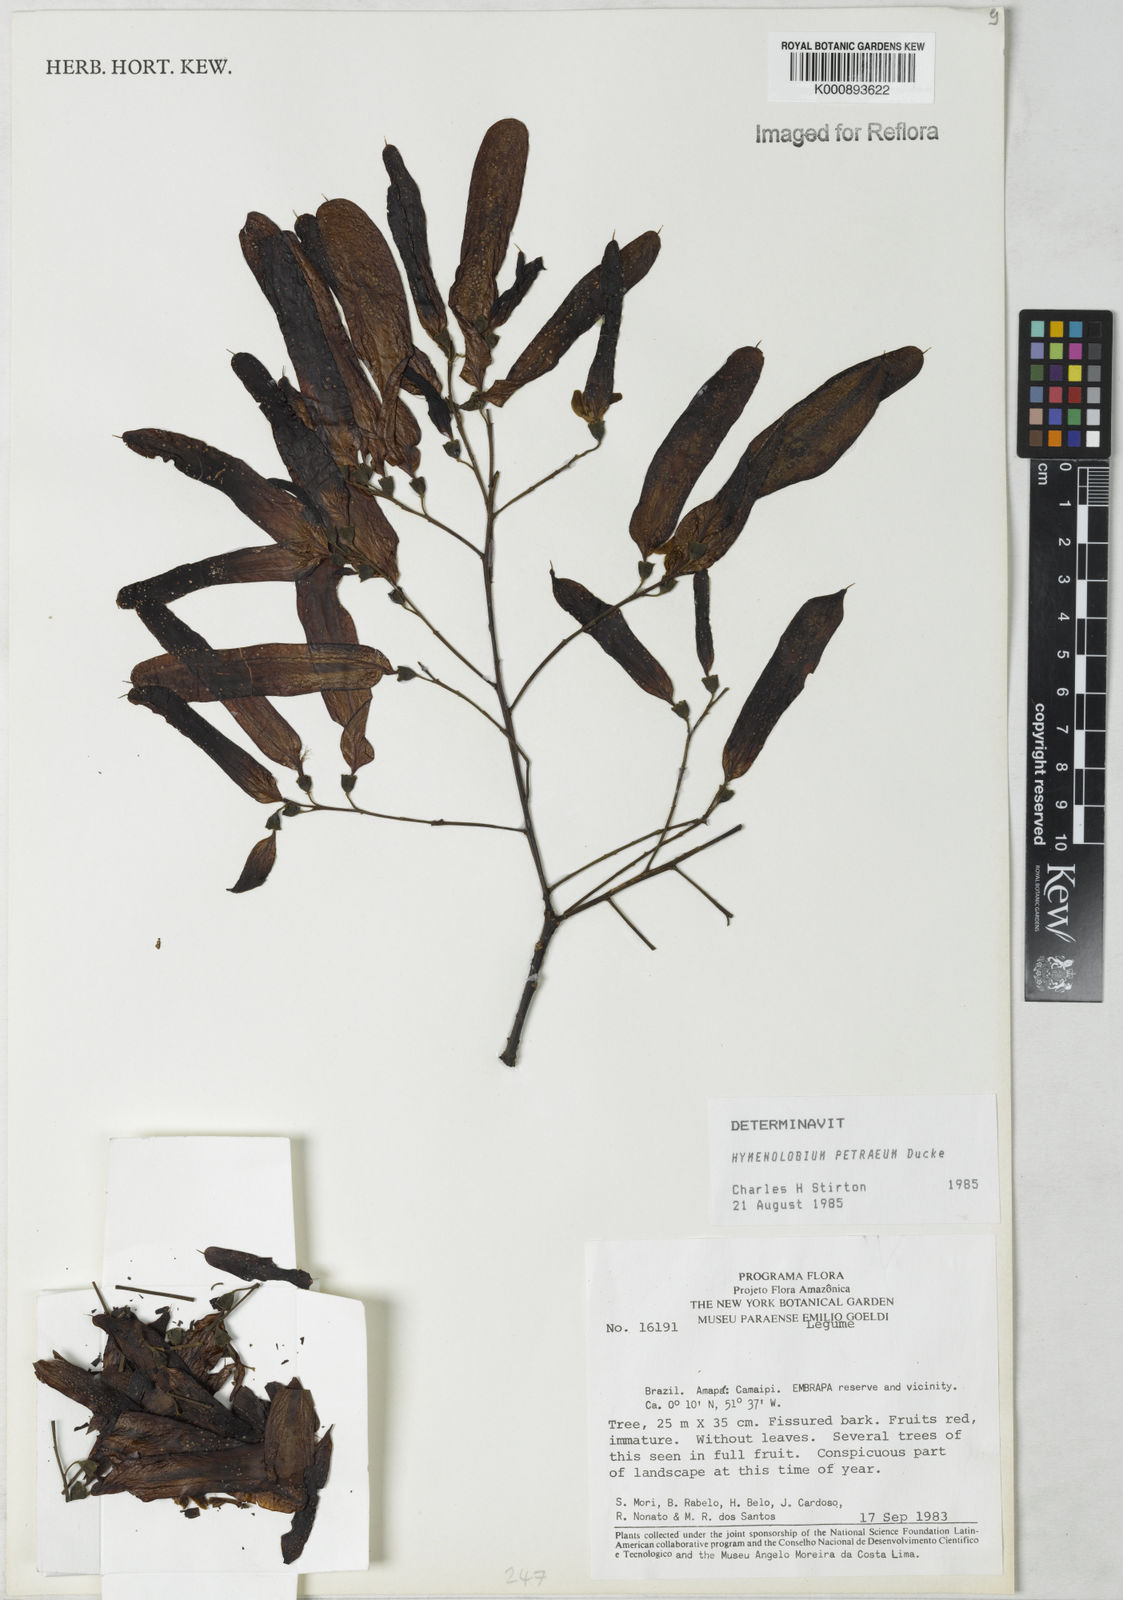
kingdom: Plantae
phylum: Tracheophyta
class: Magnoliopsida
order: Fabales
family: Fabaceae
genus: Hymenolobium
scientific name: Hymenolobium petraeum
